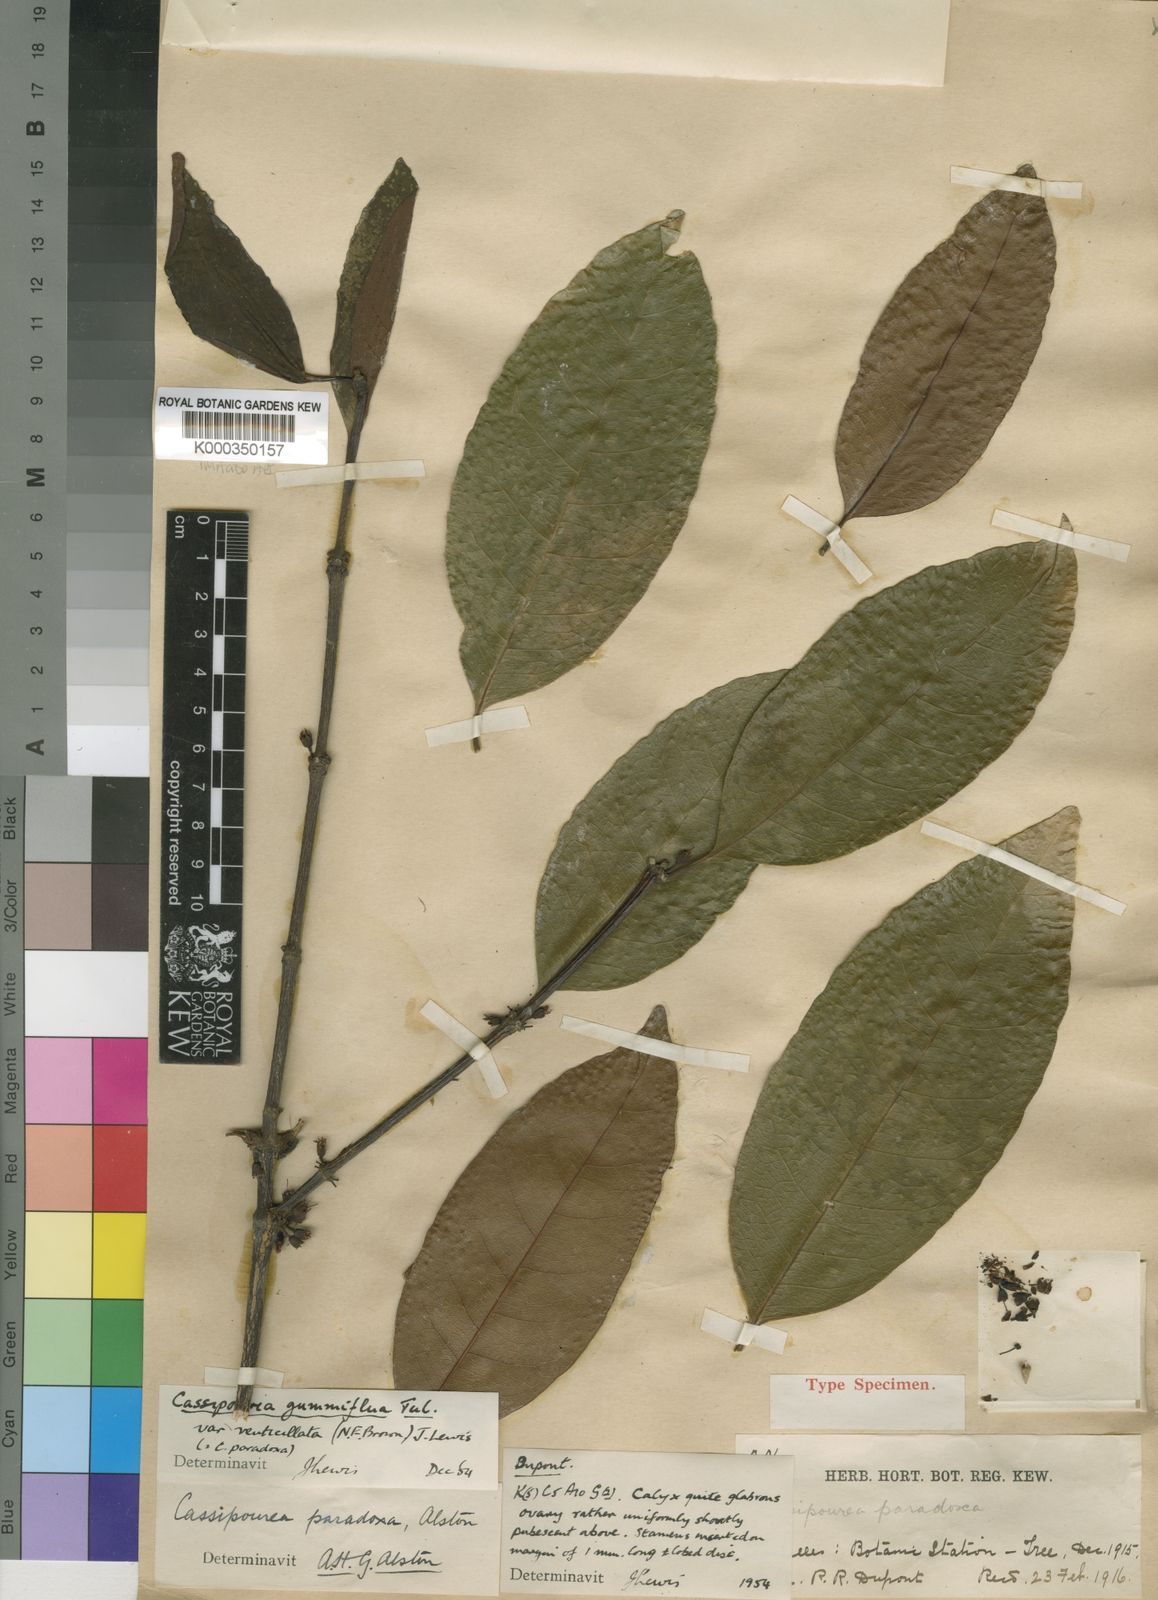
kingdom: Plantae
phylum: Tracheophyta
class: Magnoliopsida
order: Malpighiales
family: Rhizophoraceae
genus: Cassipourea
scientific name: Cassipourea gummiflua
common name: Large-leaved onionwood
